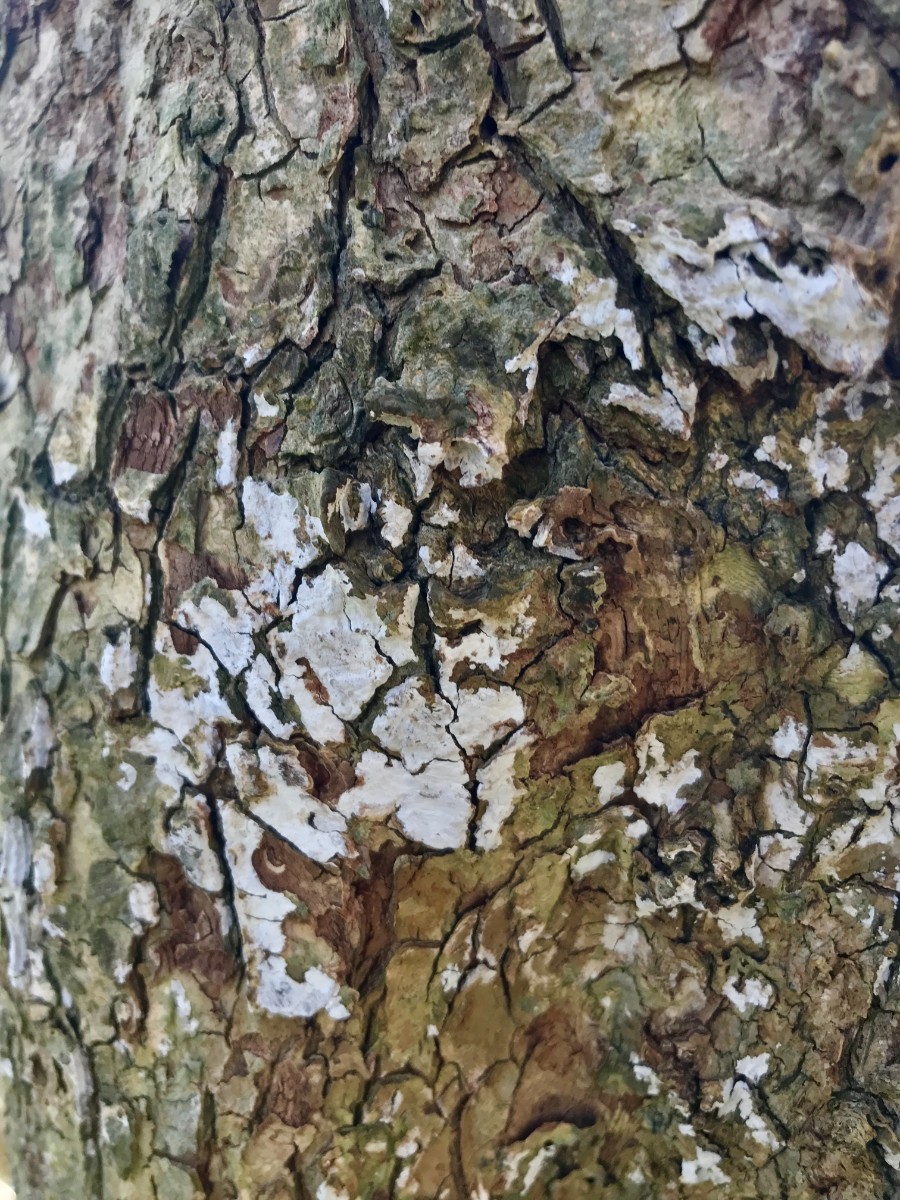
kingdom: Fungi
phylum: Basidiomycota
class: Agaricomycetes
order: Agaricales
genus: Dendrothele
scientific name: Dendrothele acerina
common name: navr-kalkplet
